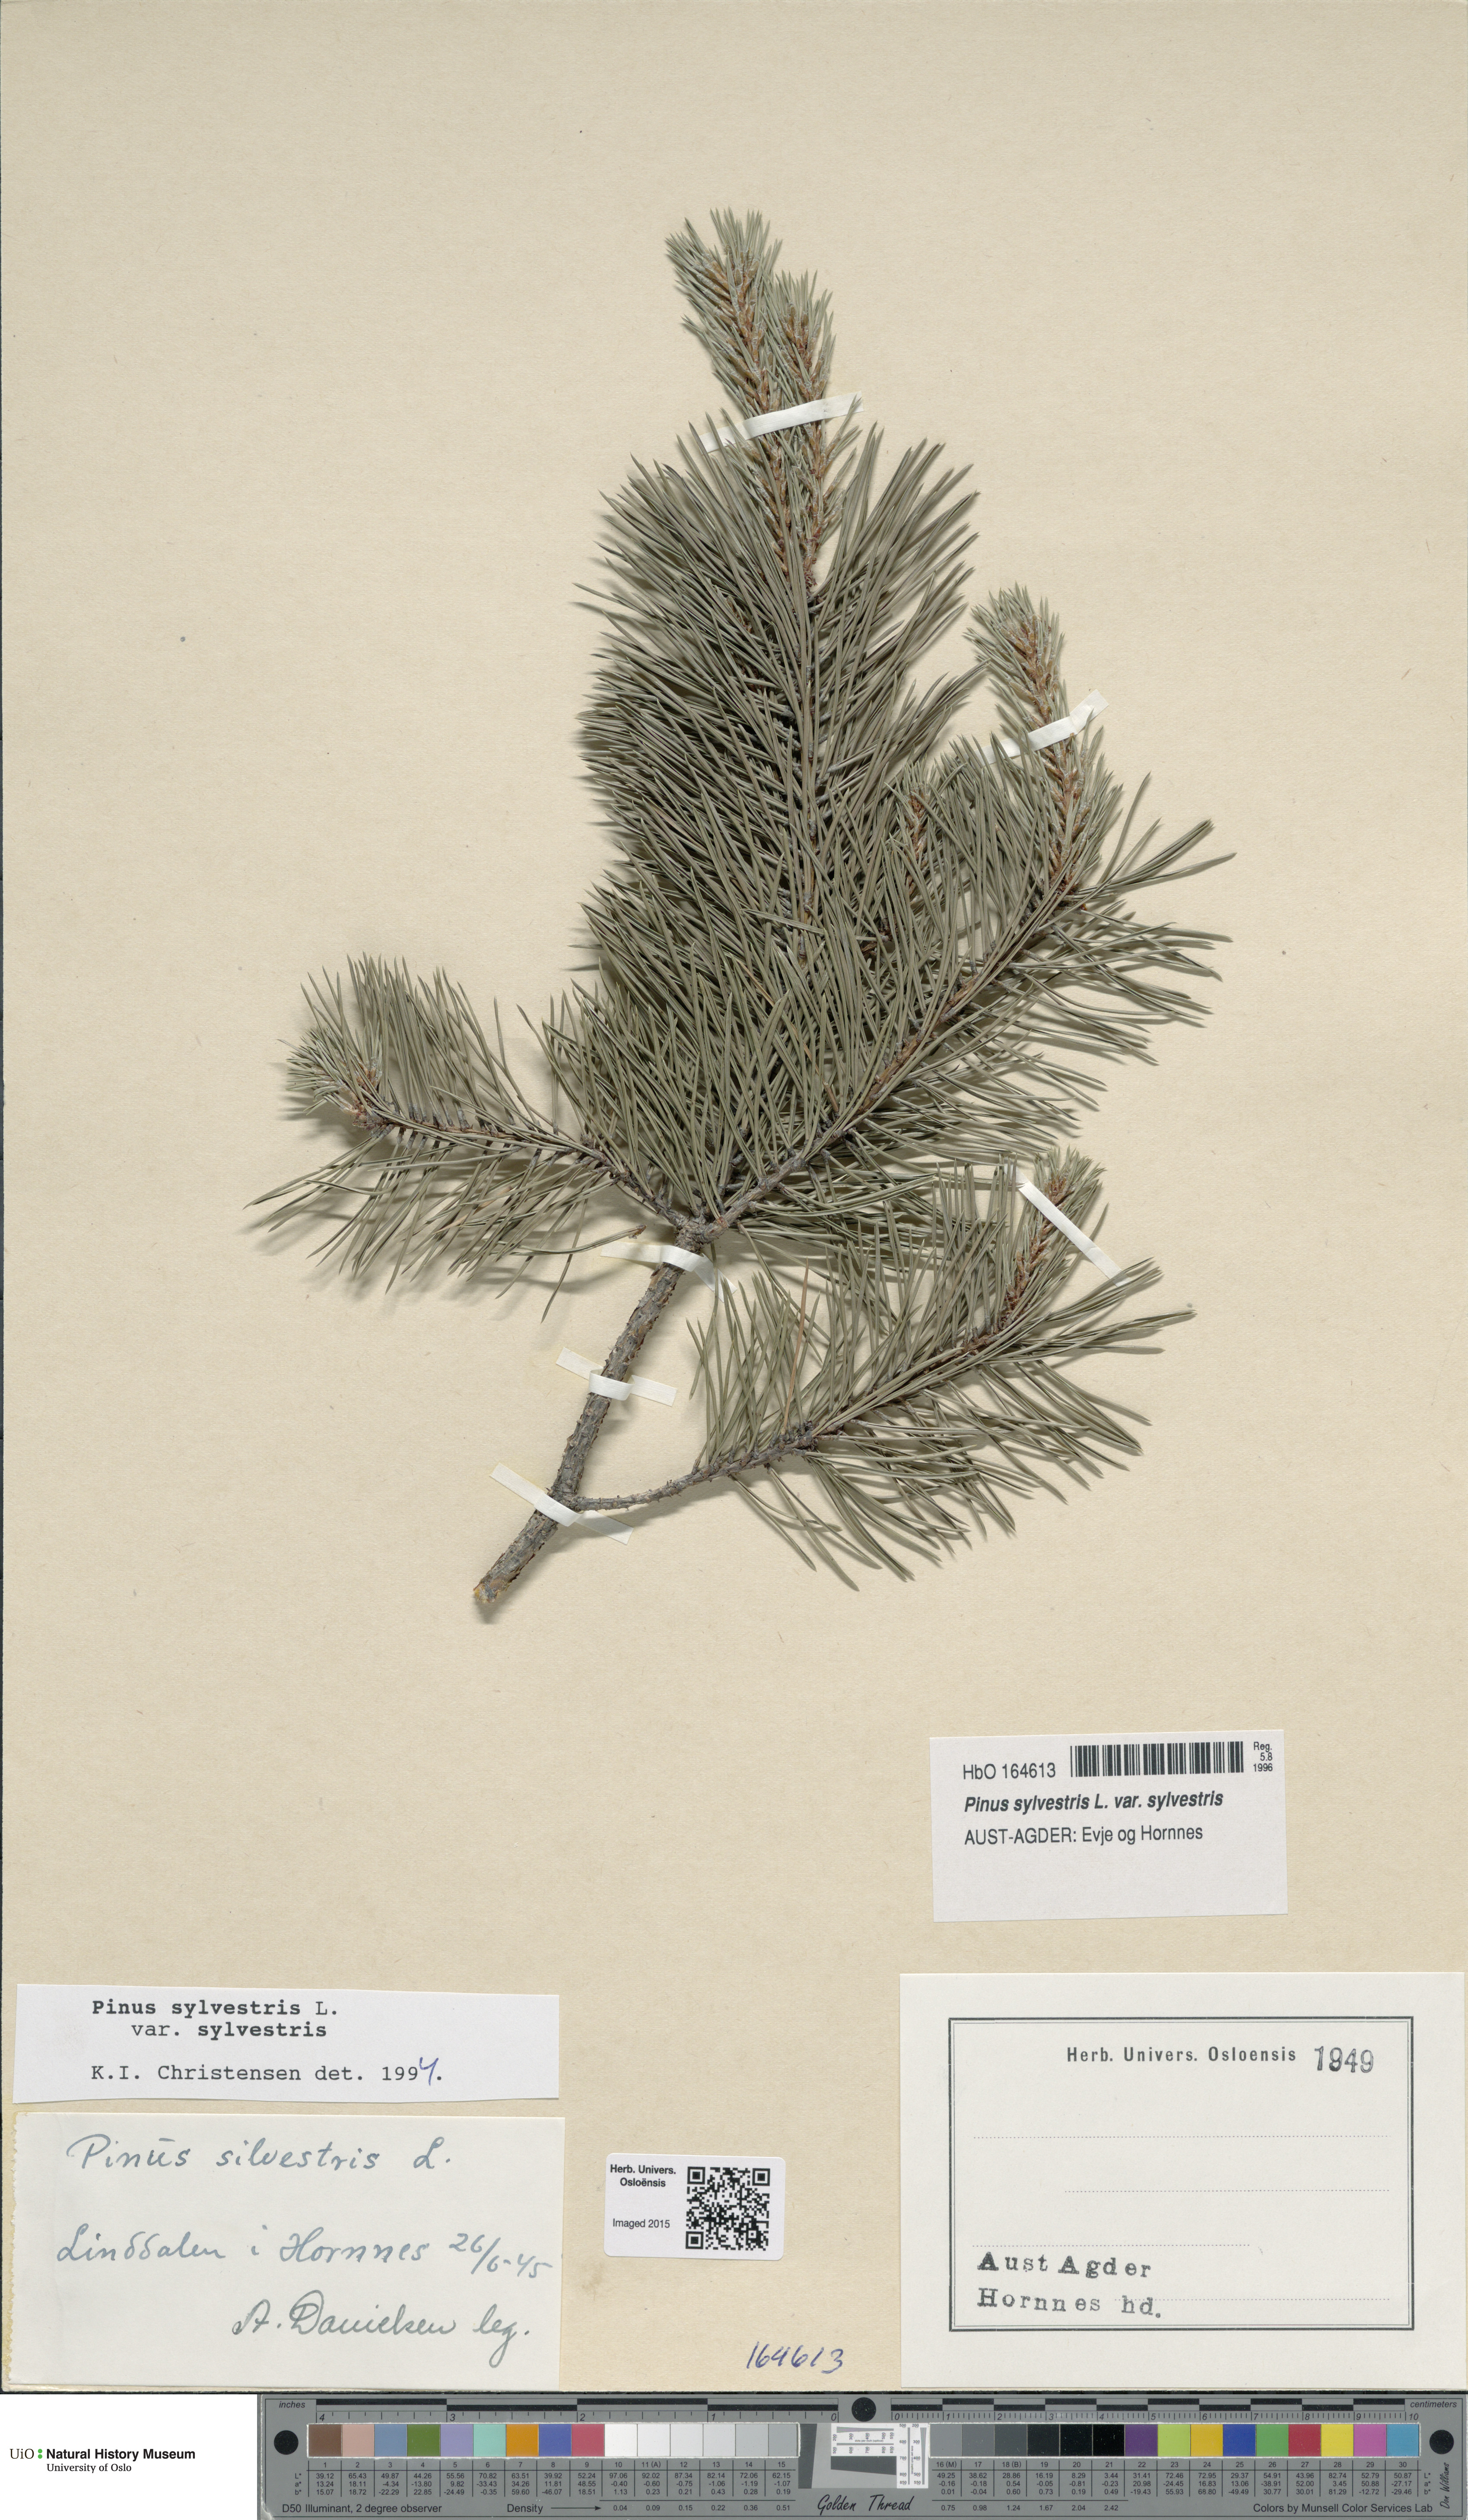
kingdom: Plantae
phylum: Tracheophyta
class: Pinopsida
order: Pinales
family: Pinaceae
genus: Pinus
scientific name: Pinus sylvestris
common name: Scots pine
